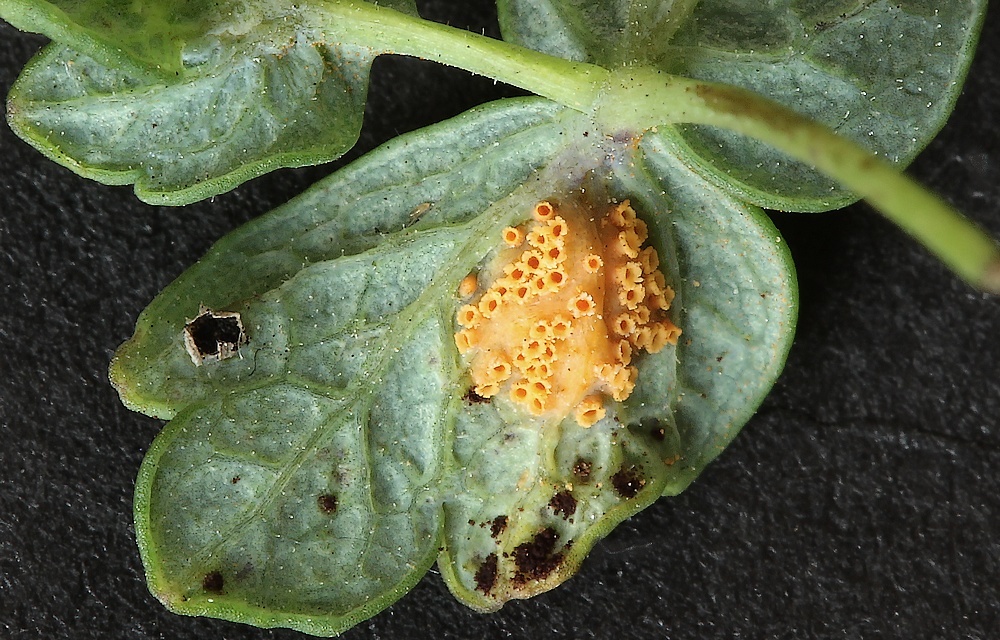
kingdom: Fungi
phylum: Basidiomycota
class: Pucciniomycetes
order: Pucciniales
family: Pucciniaceae
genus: Puccinia
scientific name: Puccinia recondita
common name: Brown rust of wheat
